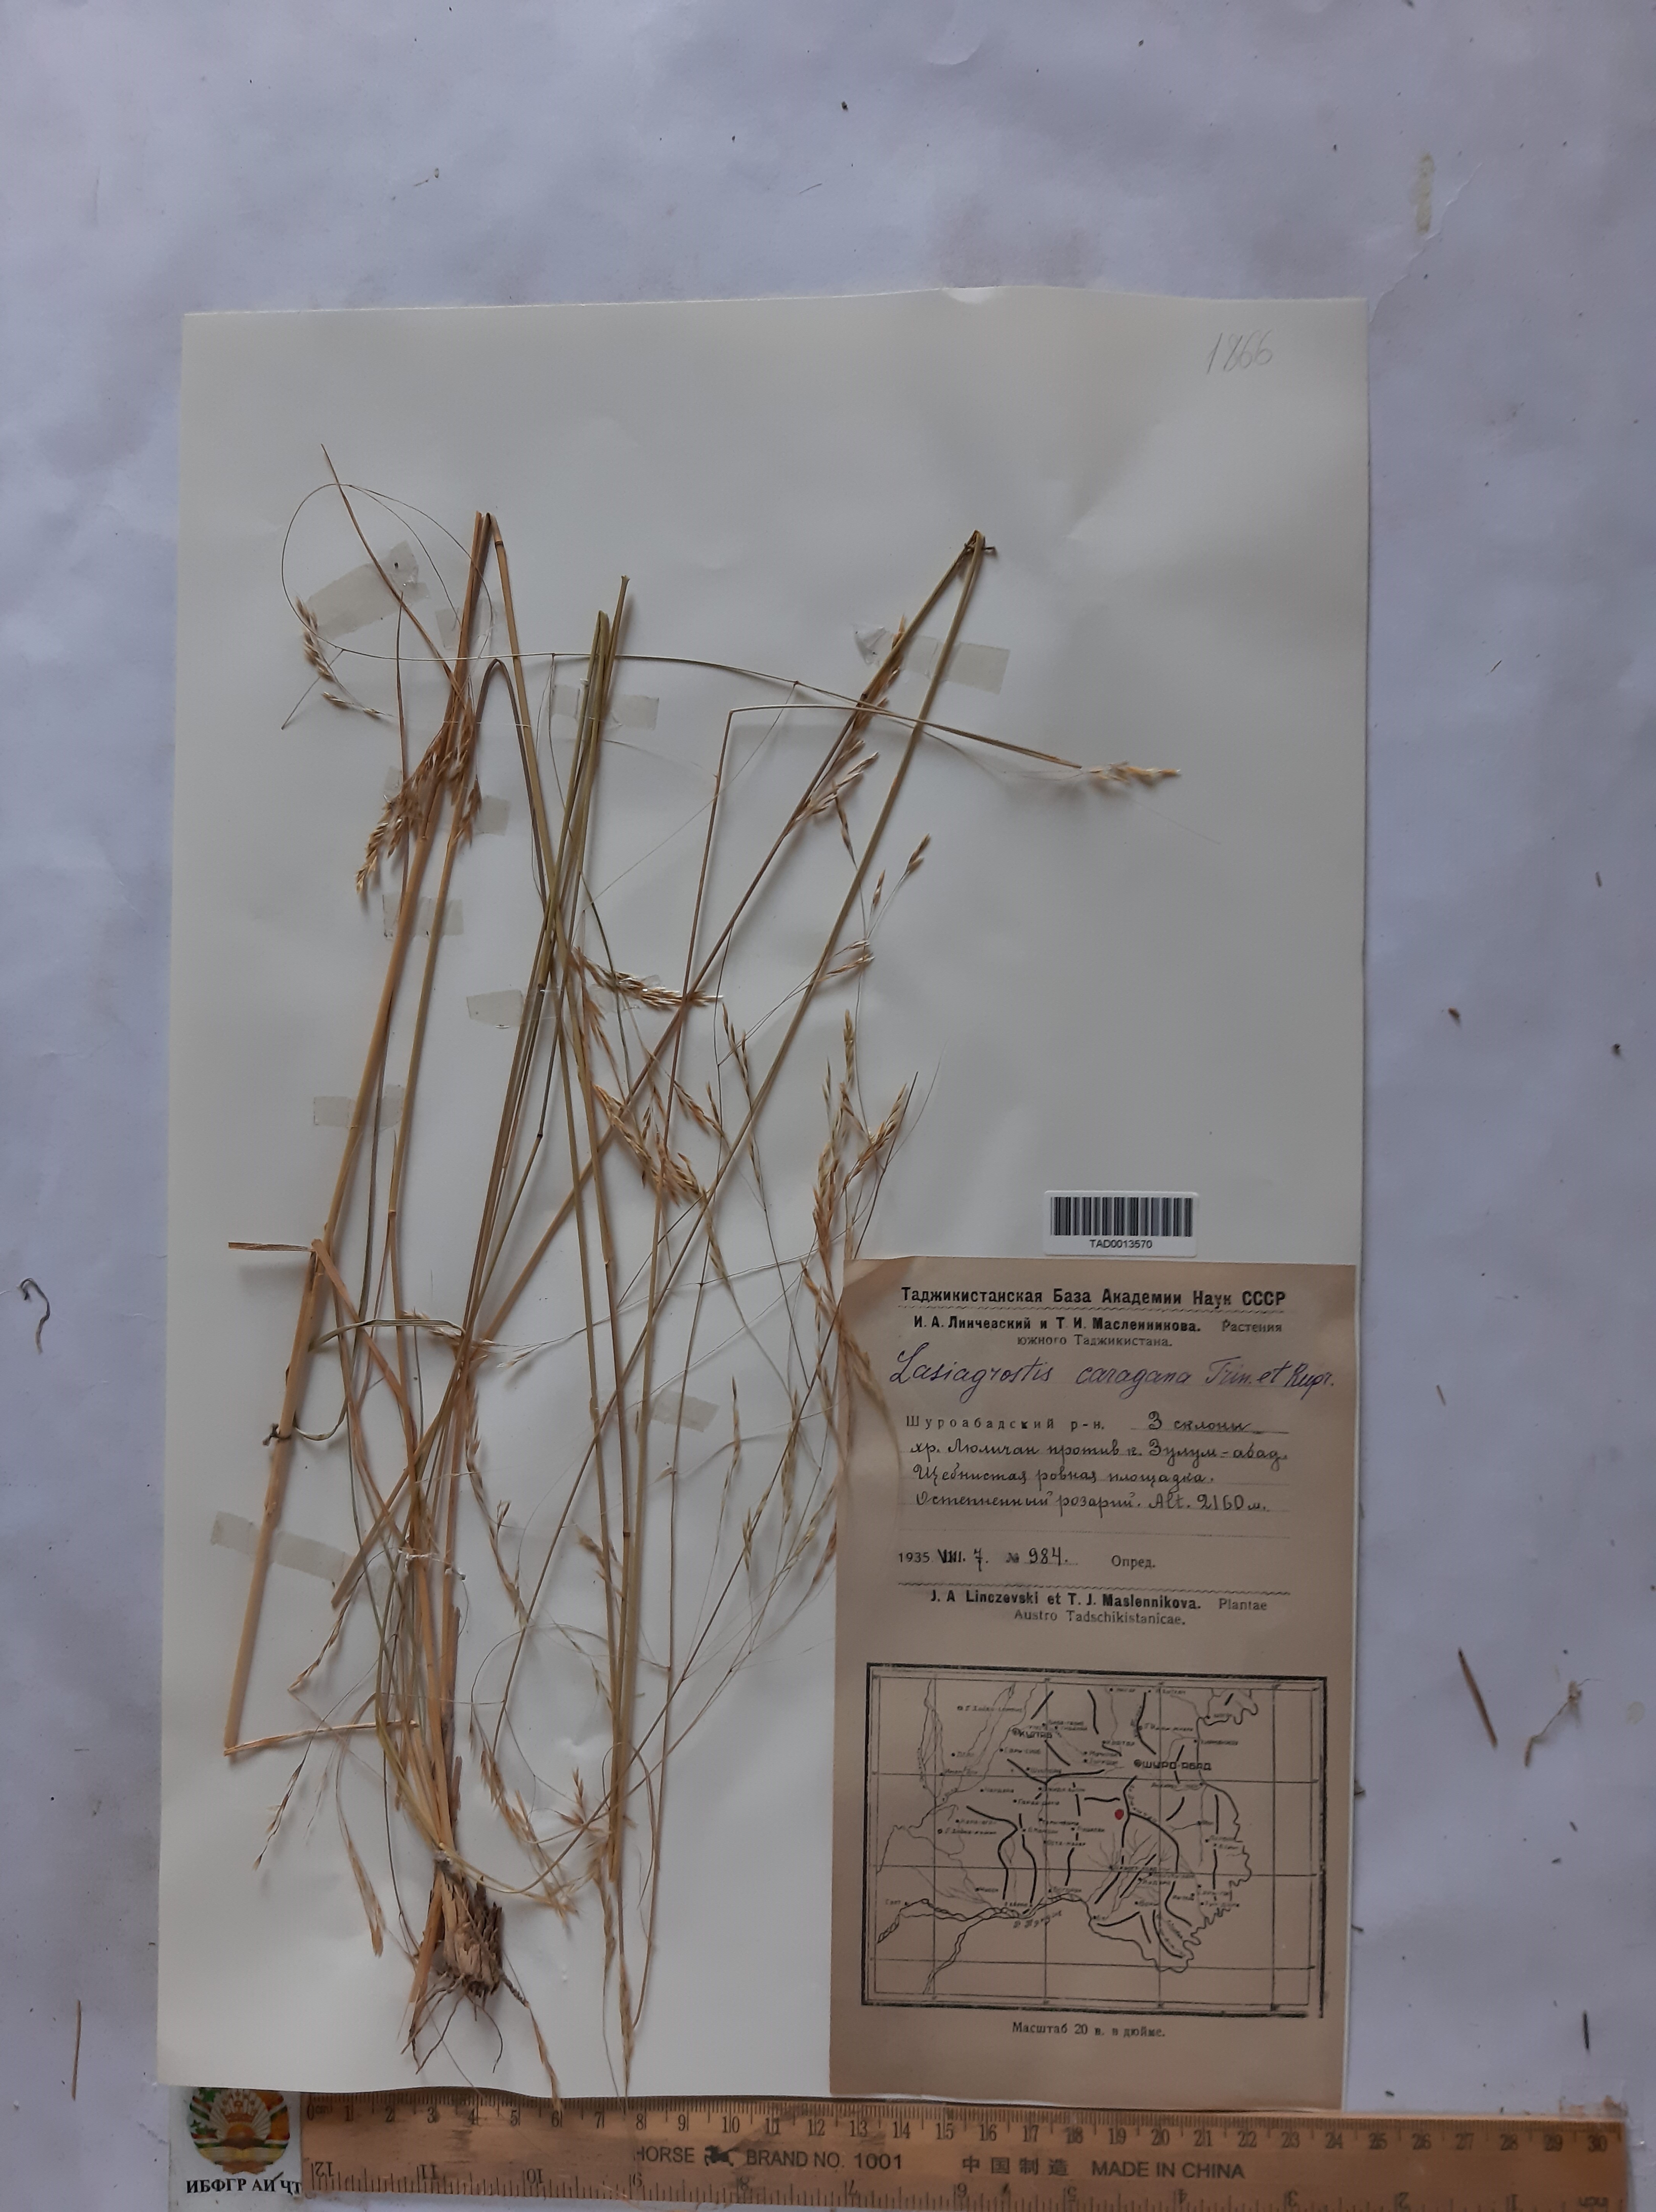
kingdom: Plantae
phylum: Tracheophyta
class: Liliopsida
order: Poales
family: Poaceae
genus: Stipa
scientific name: Stipa conferta
